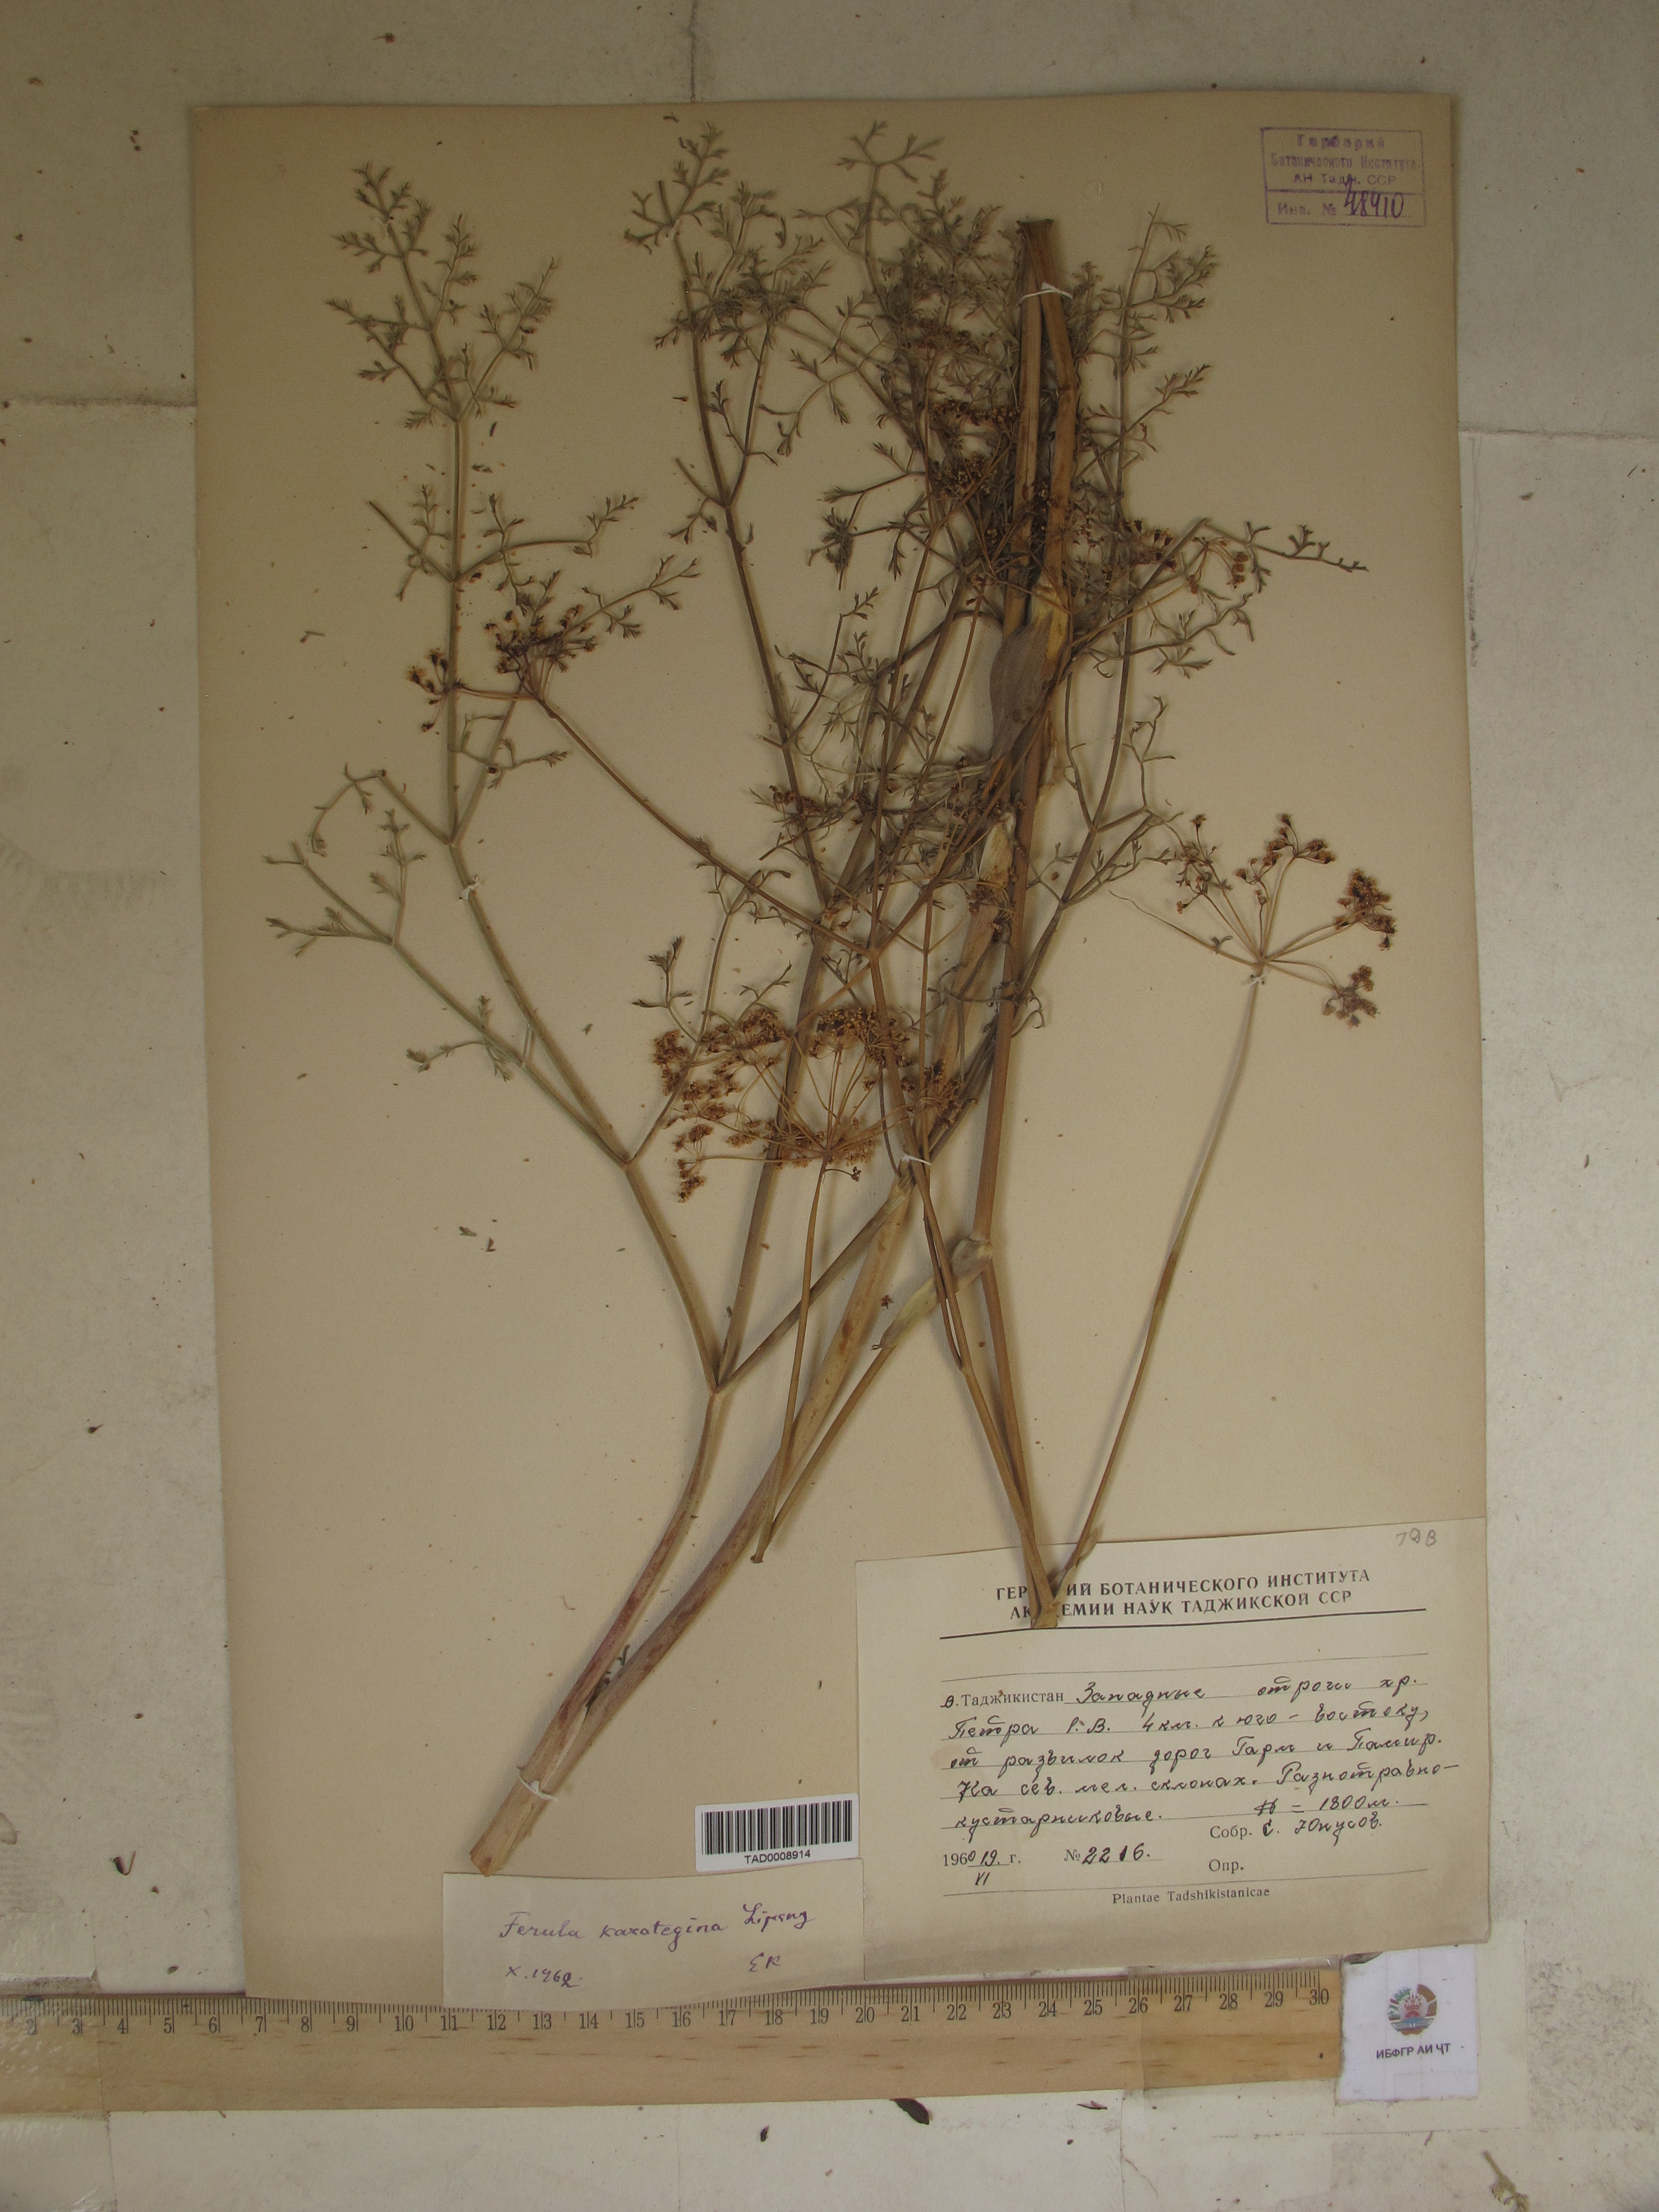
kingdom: Plantae
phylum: Tracheophyta
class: Magnoliopsida
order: Apiales
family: Apiaceae
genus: Ferula
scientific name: Ferula karategina
